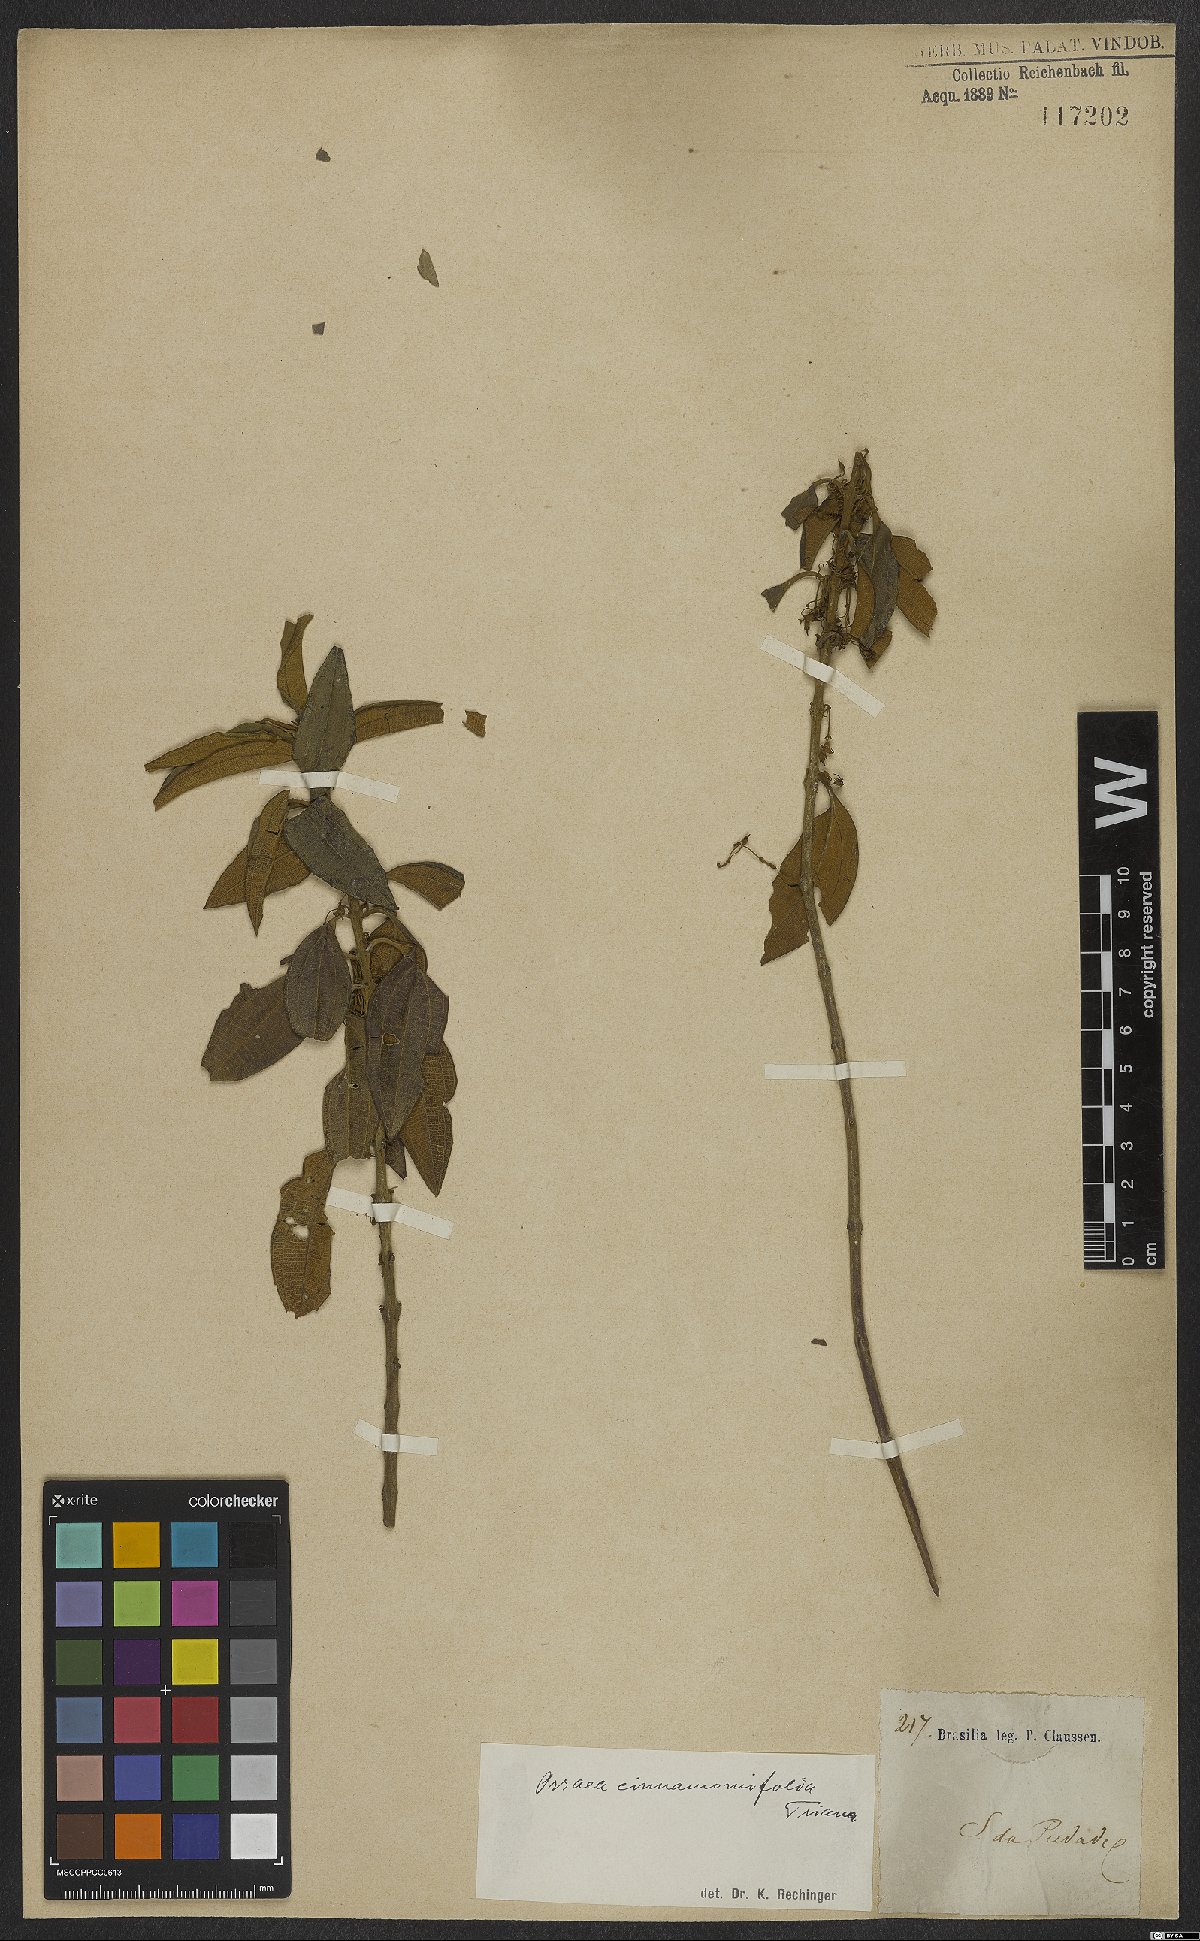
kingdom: Plantae
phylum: Tracheophyta
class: Magnoliopsida
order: Myrtales
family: Melastomataceae
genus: Miconia
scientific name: Miconia leacinnamomifolia
